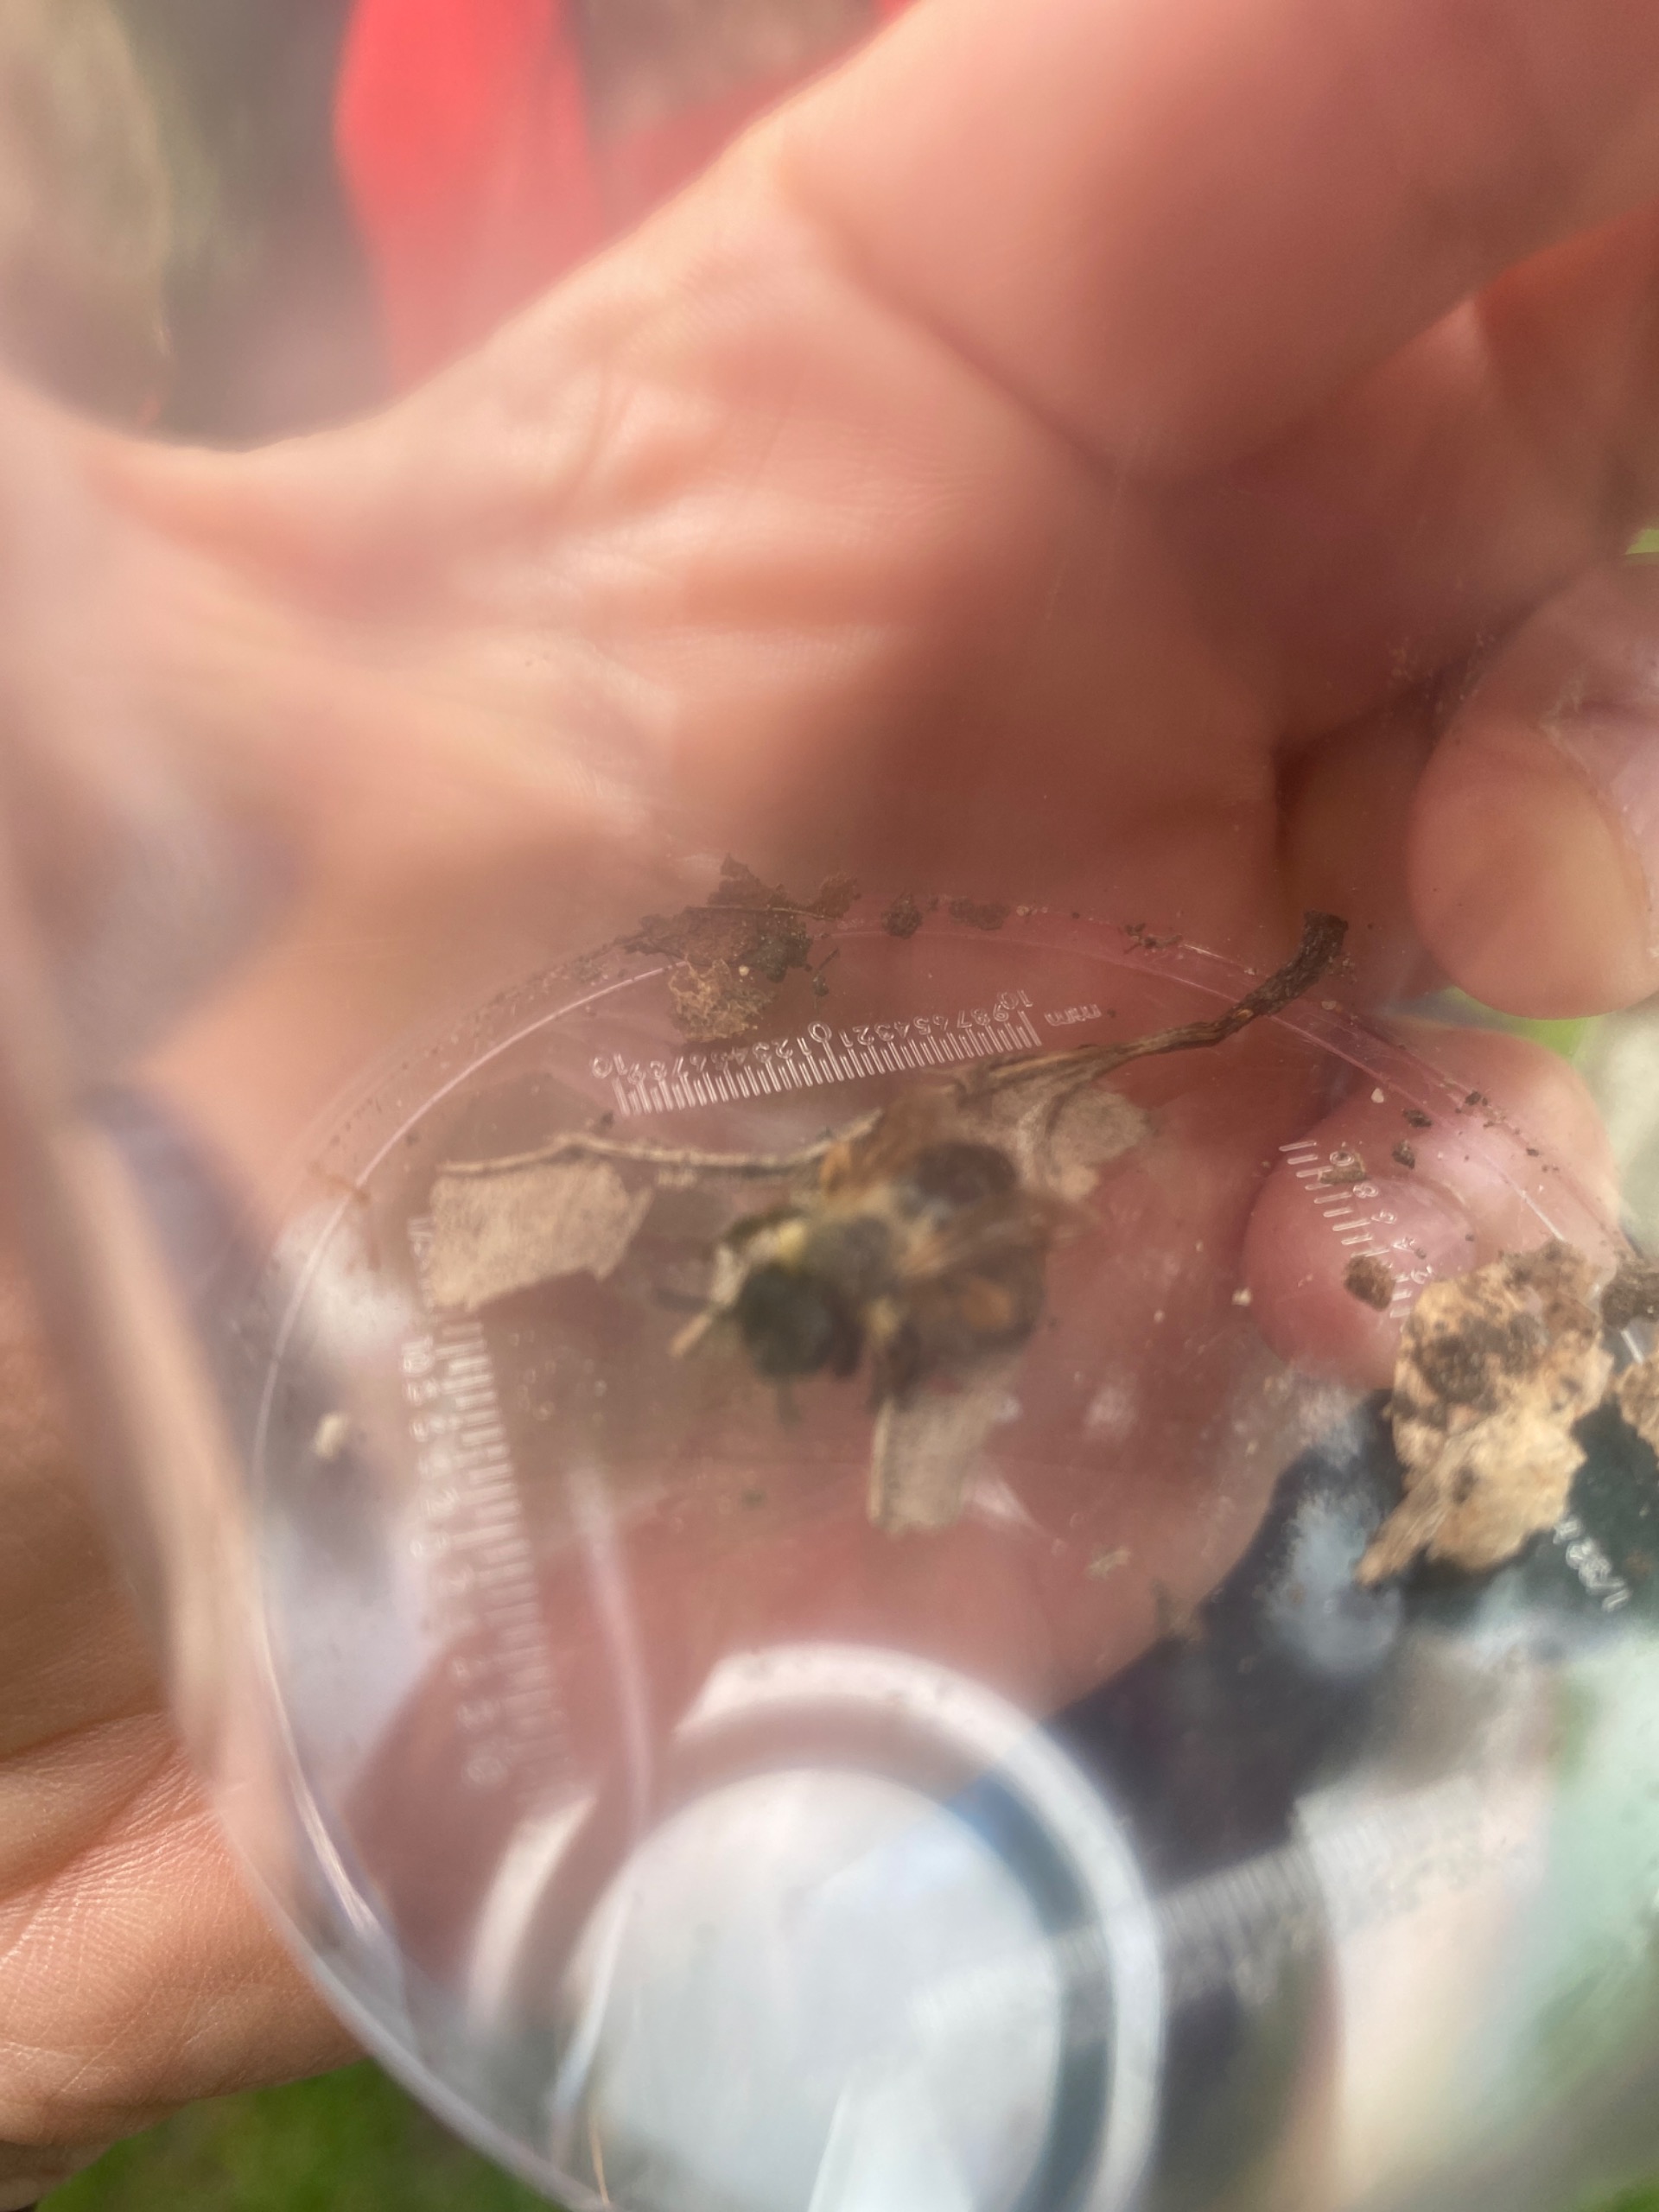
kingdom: Animalia
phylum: Arthropoda
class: Insecta
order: Hymenoptera
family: Crabronidae
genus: Crossocerus
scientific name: Crossocerus
